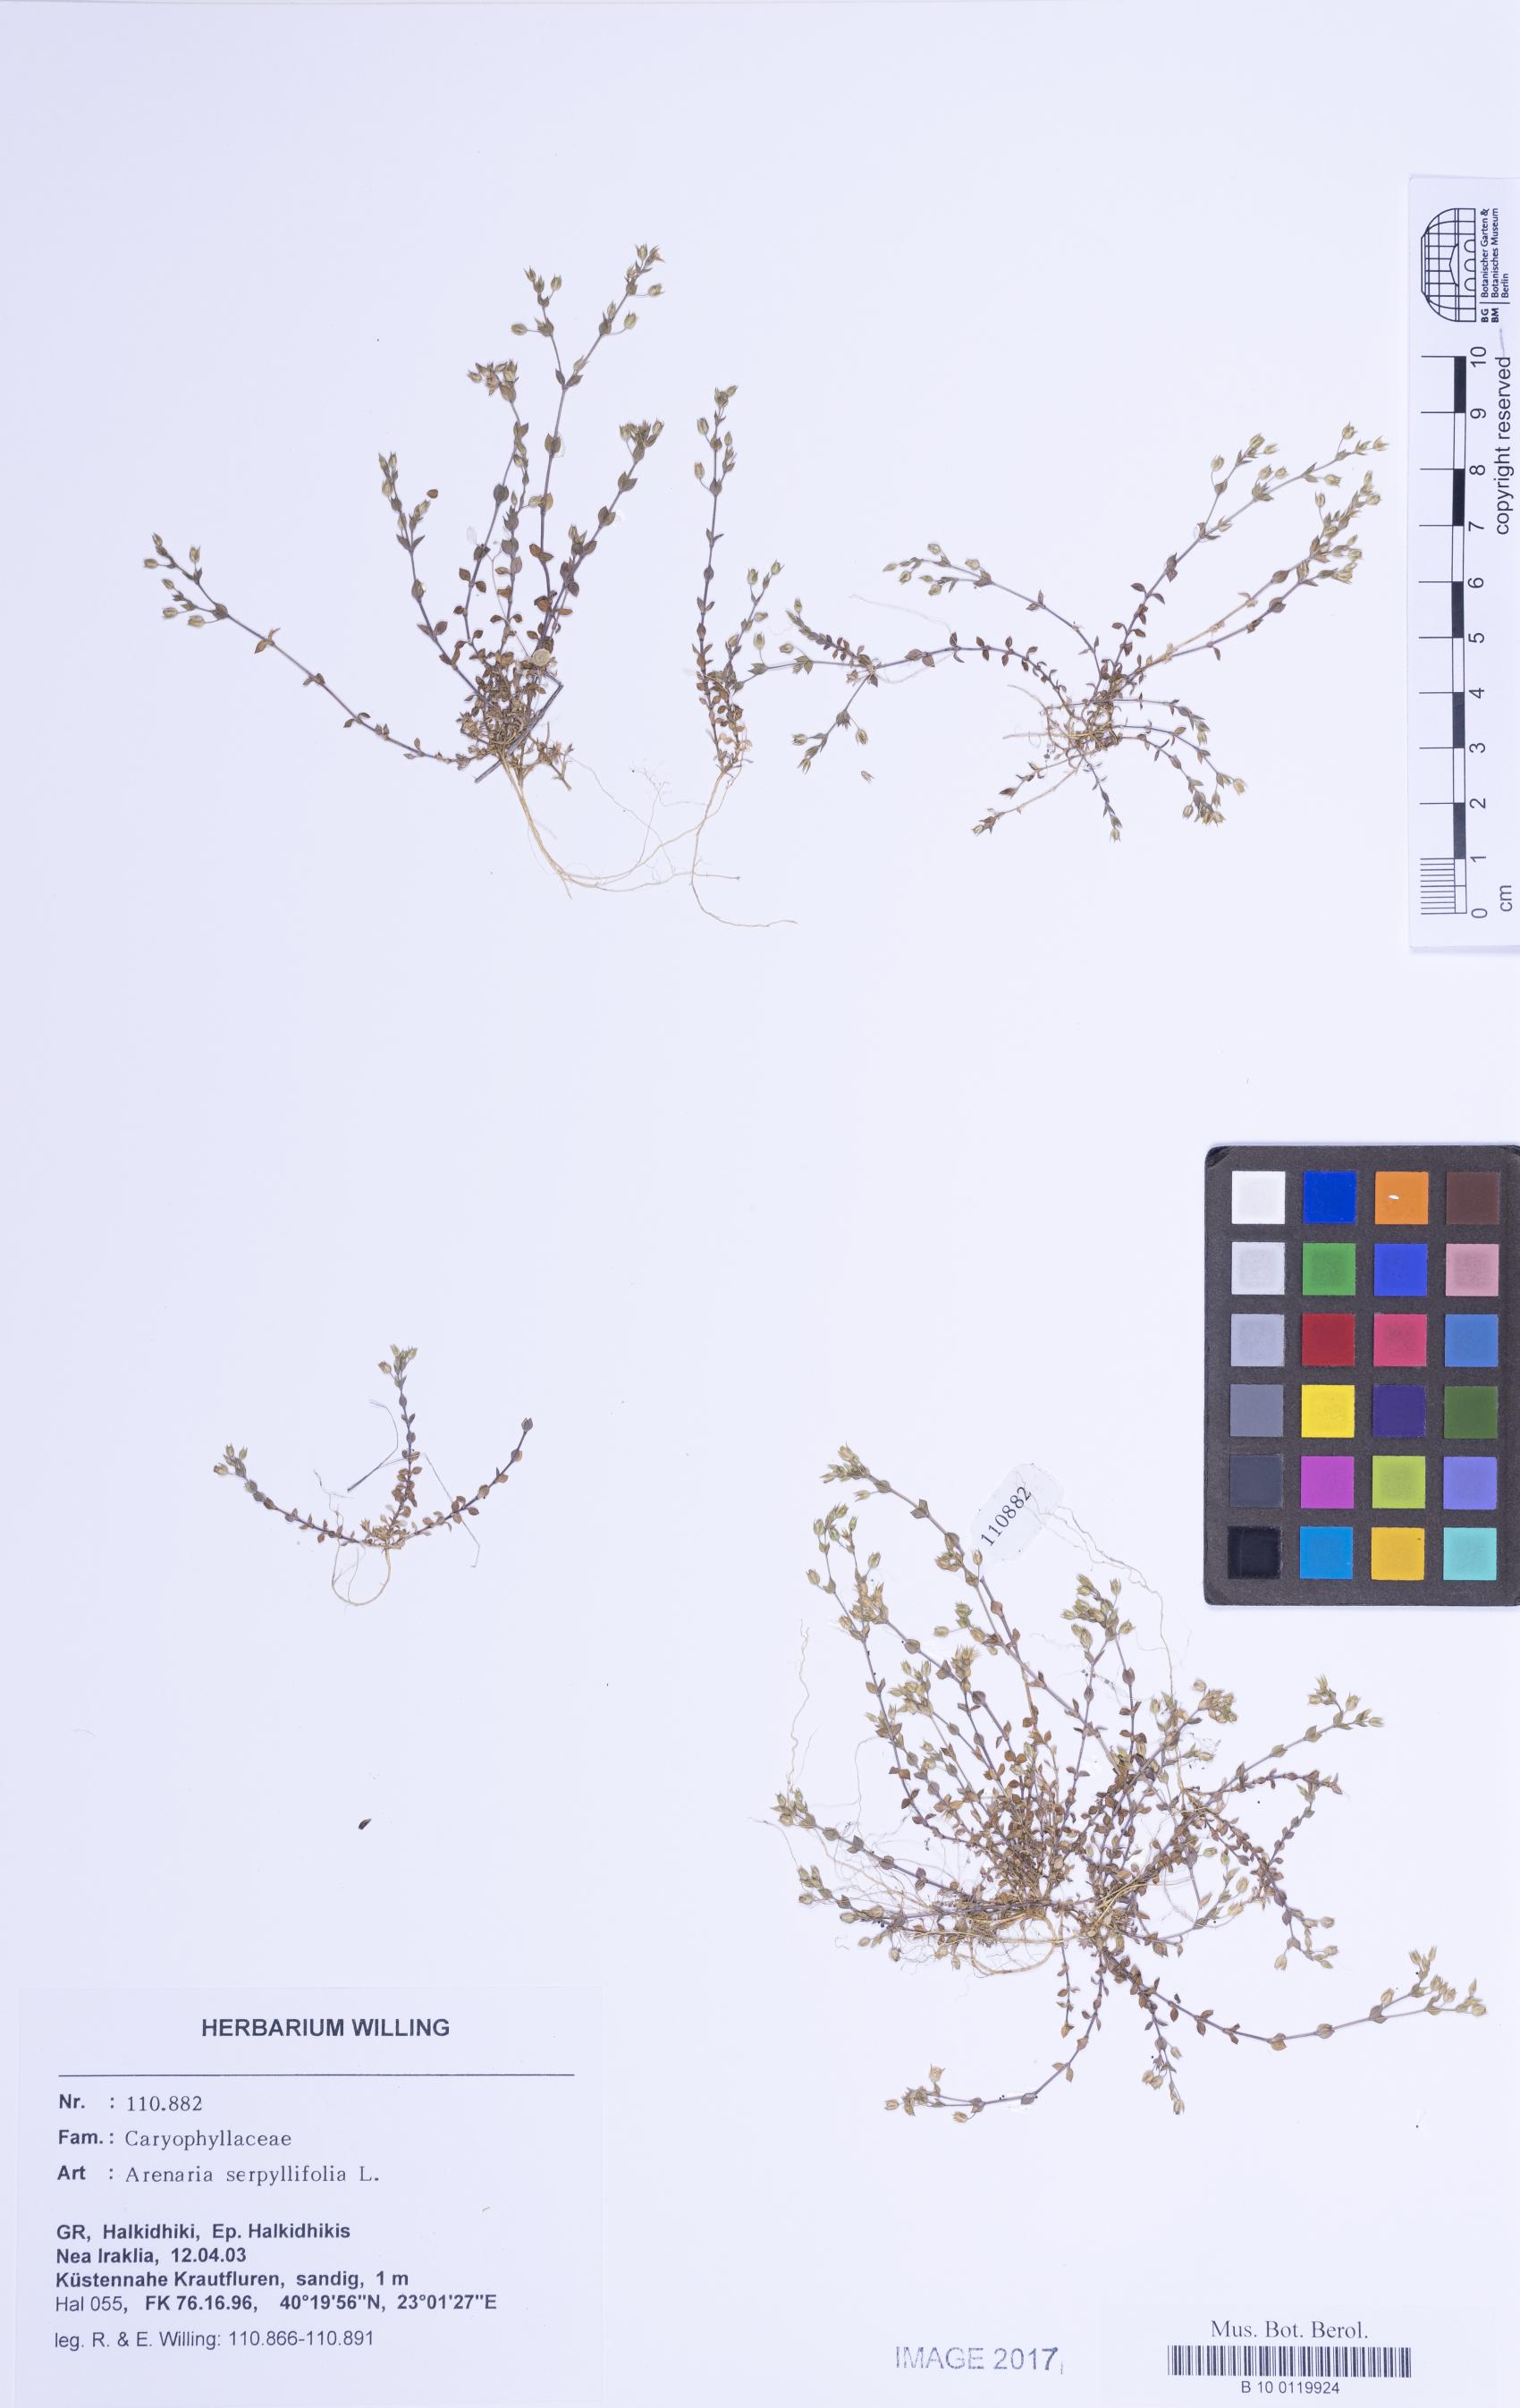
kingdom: Plantae
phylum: Tracheophyta
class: Magnoliopsida
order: Caryophyllales
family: Caryophyllaceae
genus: Arenaria
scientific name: Arenaria serpyllifolia
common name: Thyme-leaved sandwort
